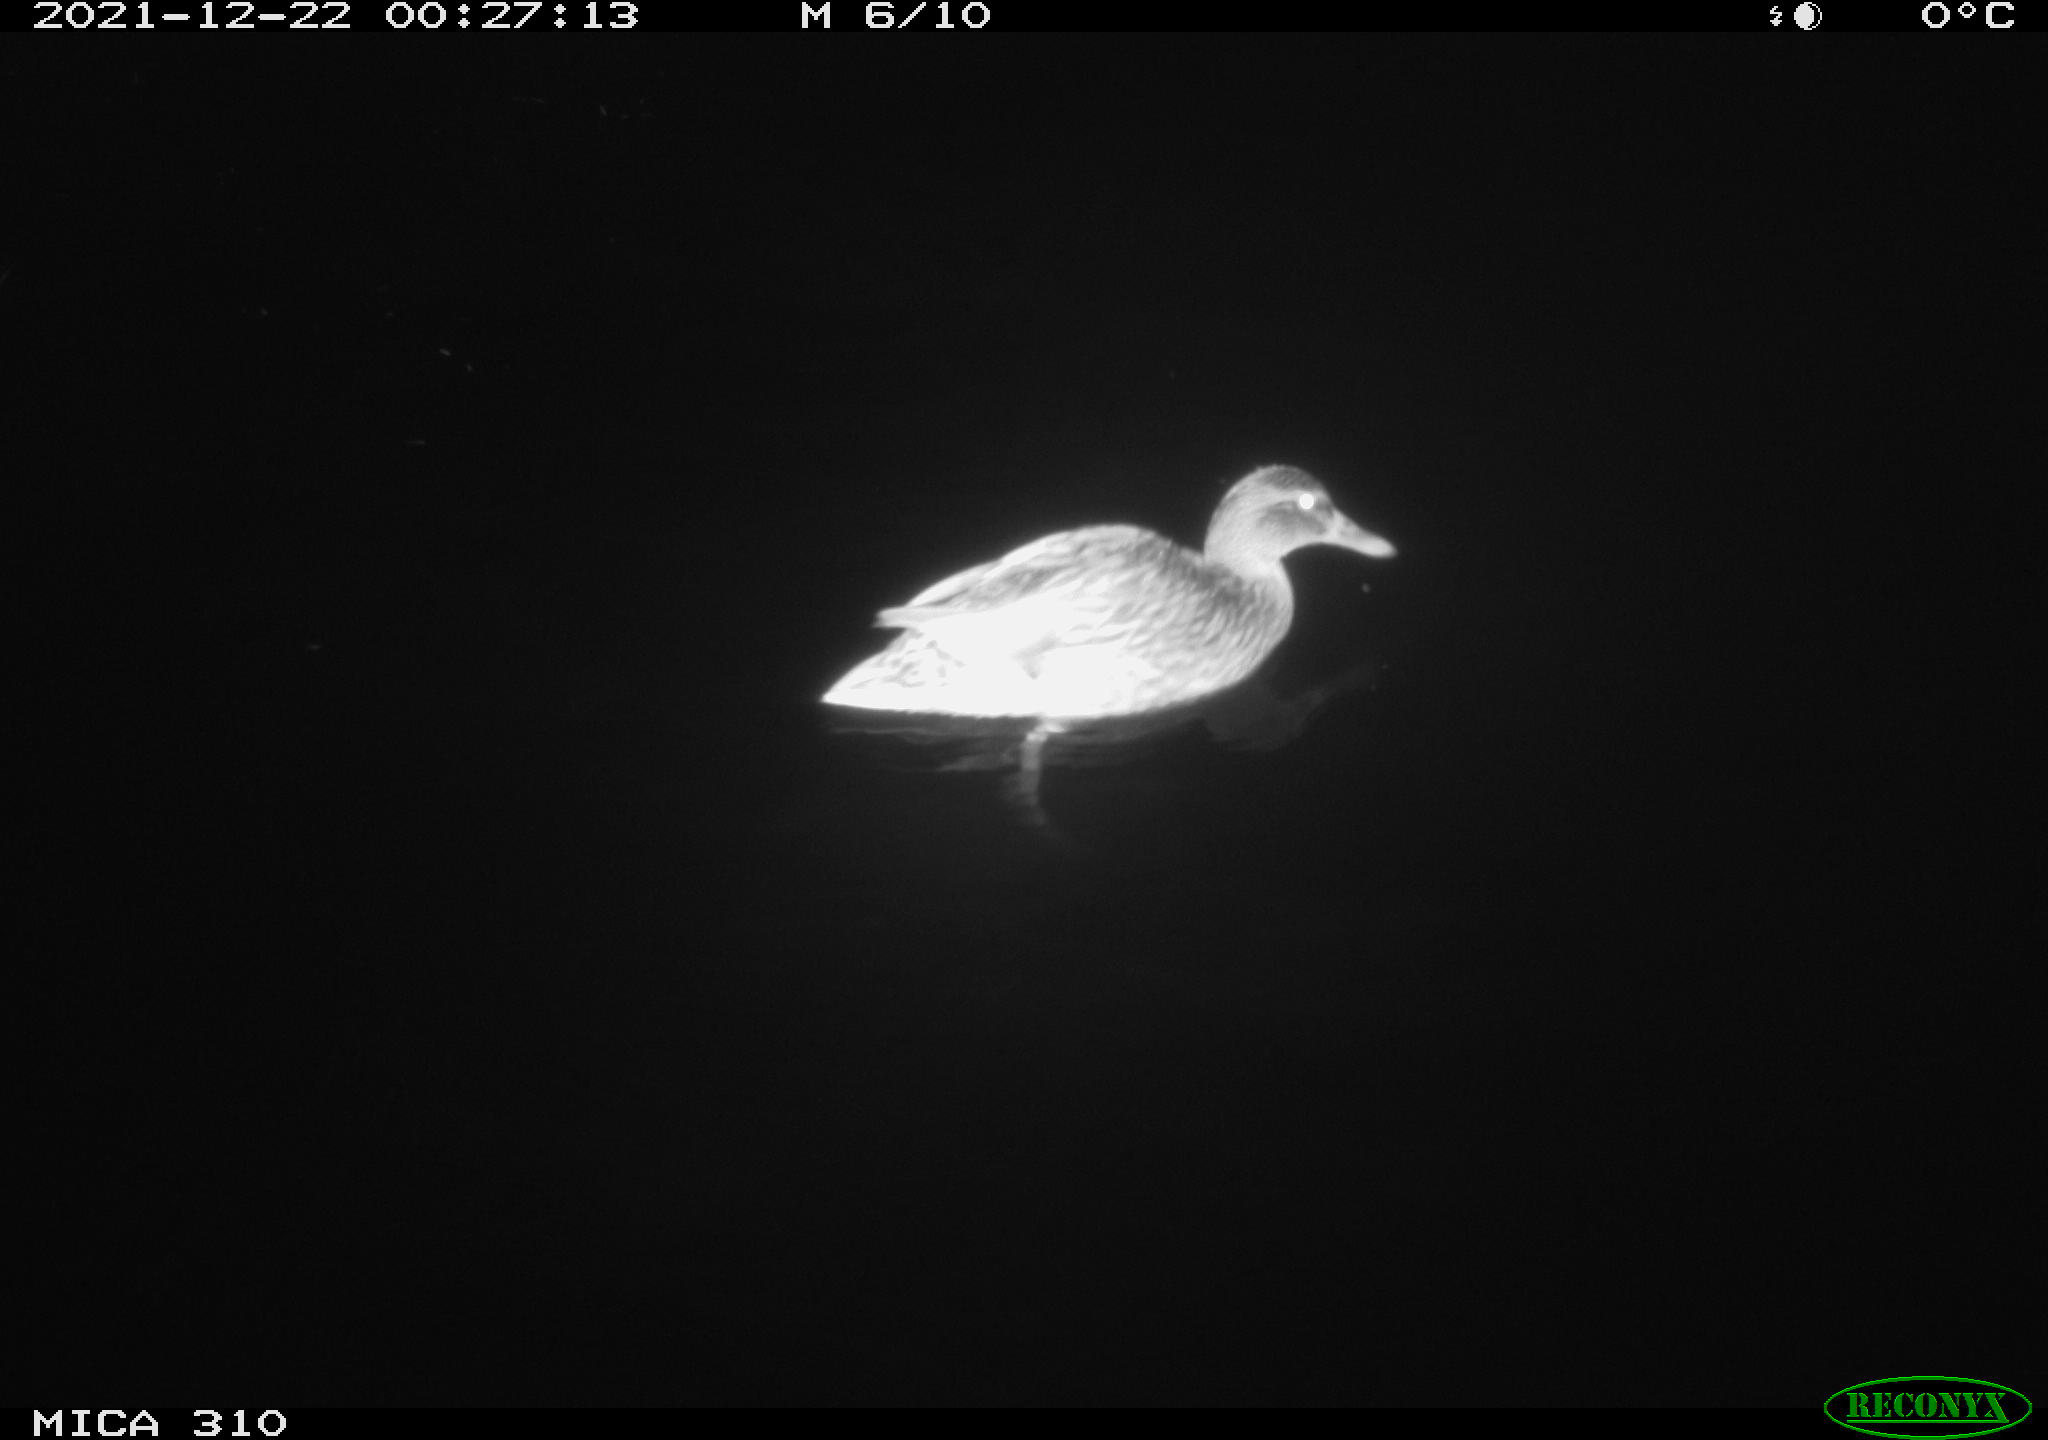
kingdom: Animalia
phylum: Chordata
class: Aves
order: Anseriformes
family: Anatidae
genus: Anas
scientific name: Anas platyrhynchos
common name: Mallard
